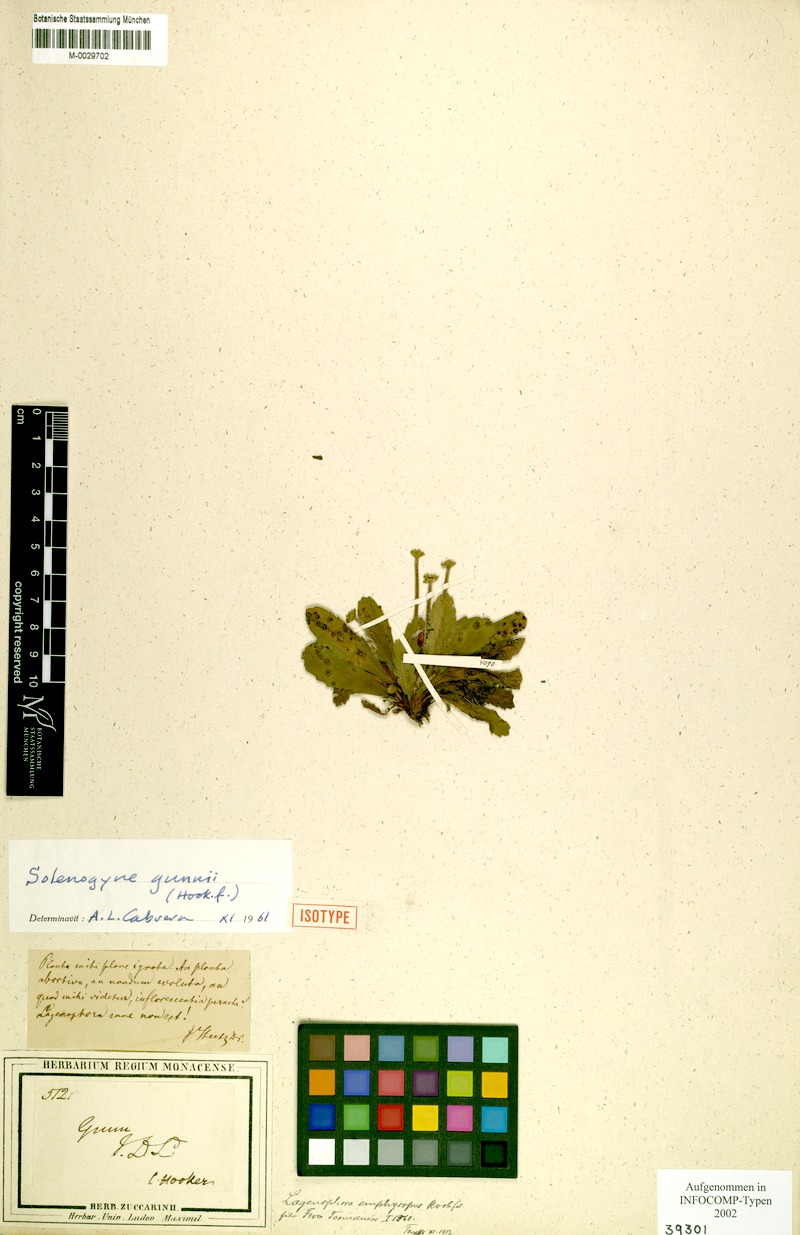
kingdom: Plantae
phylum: Tracheophyta
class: Magnoliopsida
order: Asterales
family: Asteraceae
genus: Solenogyne
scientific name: Solenogyne gunnii
